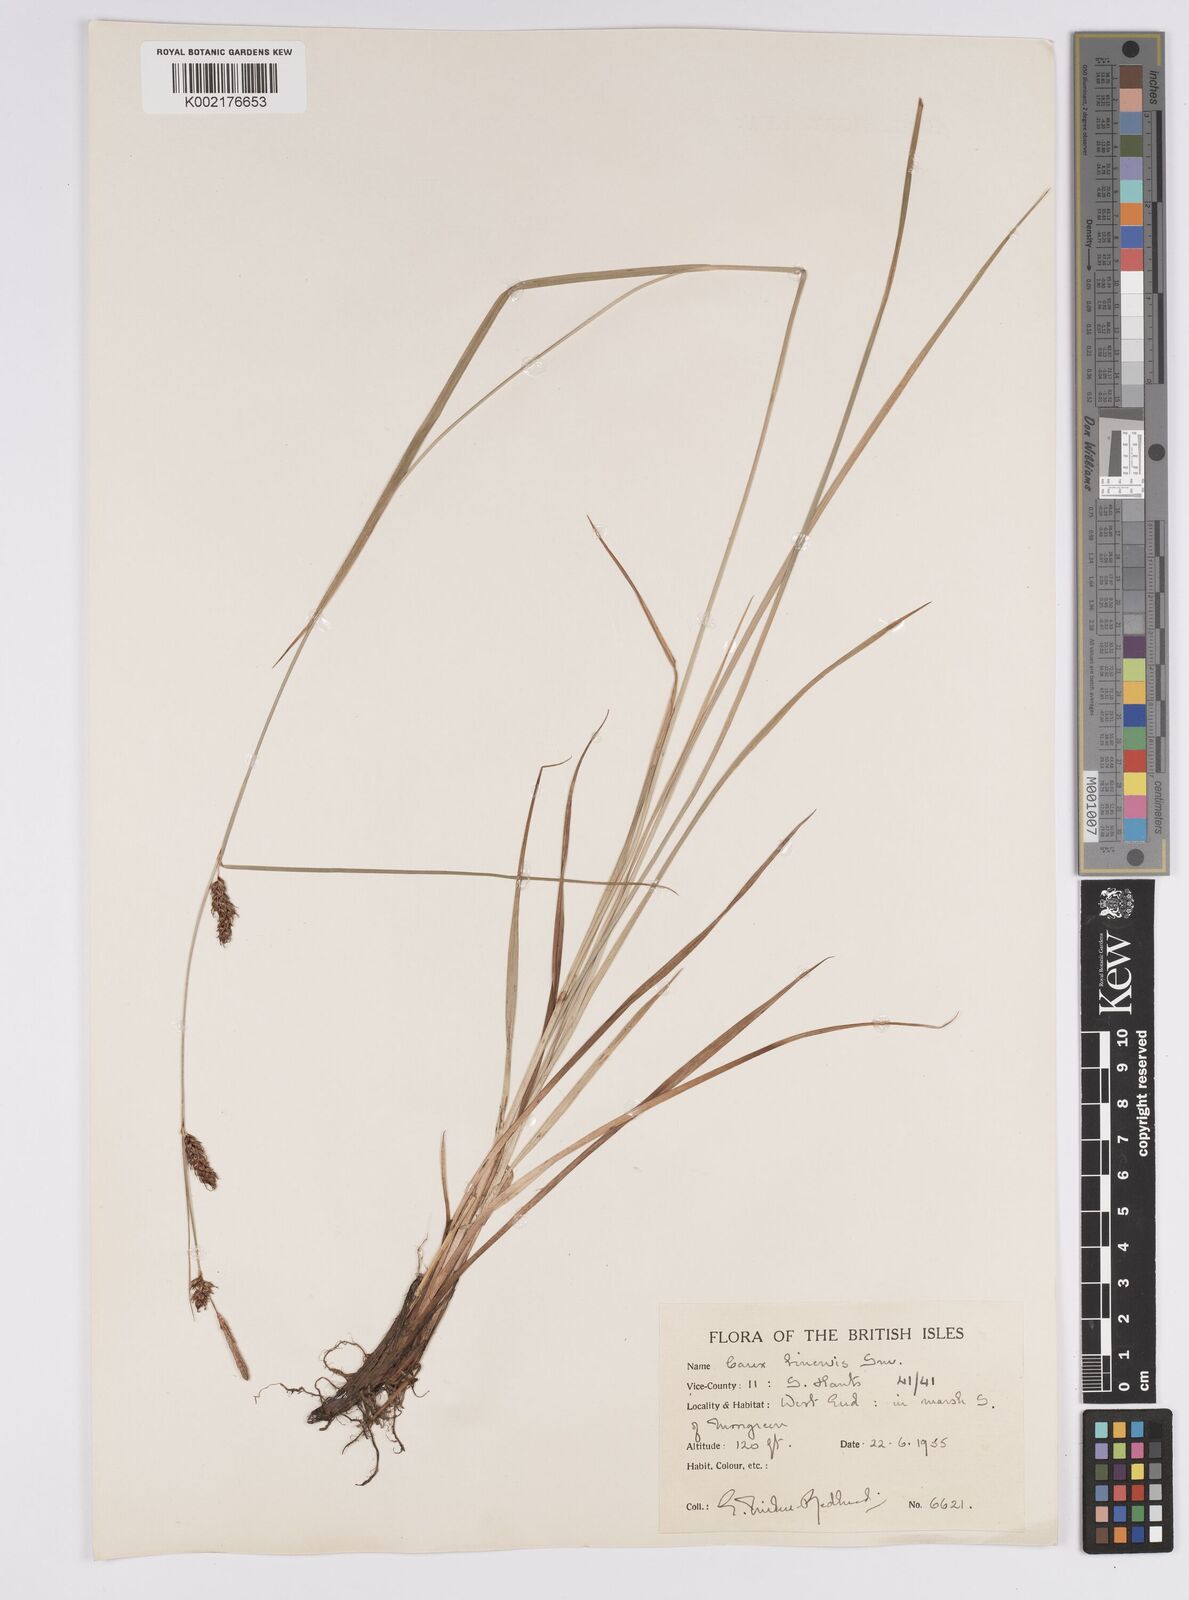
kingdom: Plantae
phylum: Tracheophyta
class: Liliopsida
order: Poales
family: Cyperaceae
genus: Carex
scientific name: Carex binervis
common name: Green-ribbed sedge
